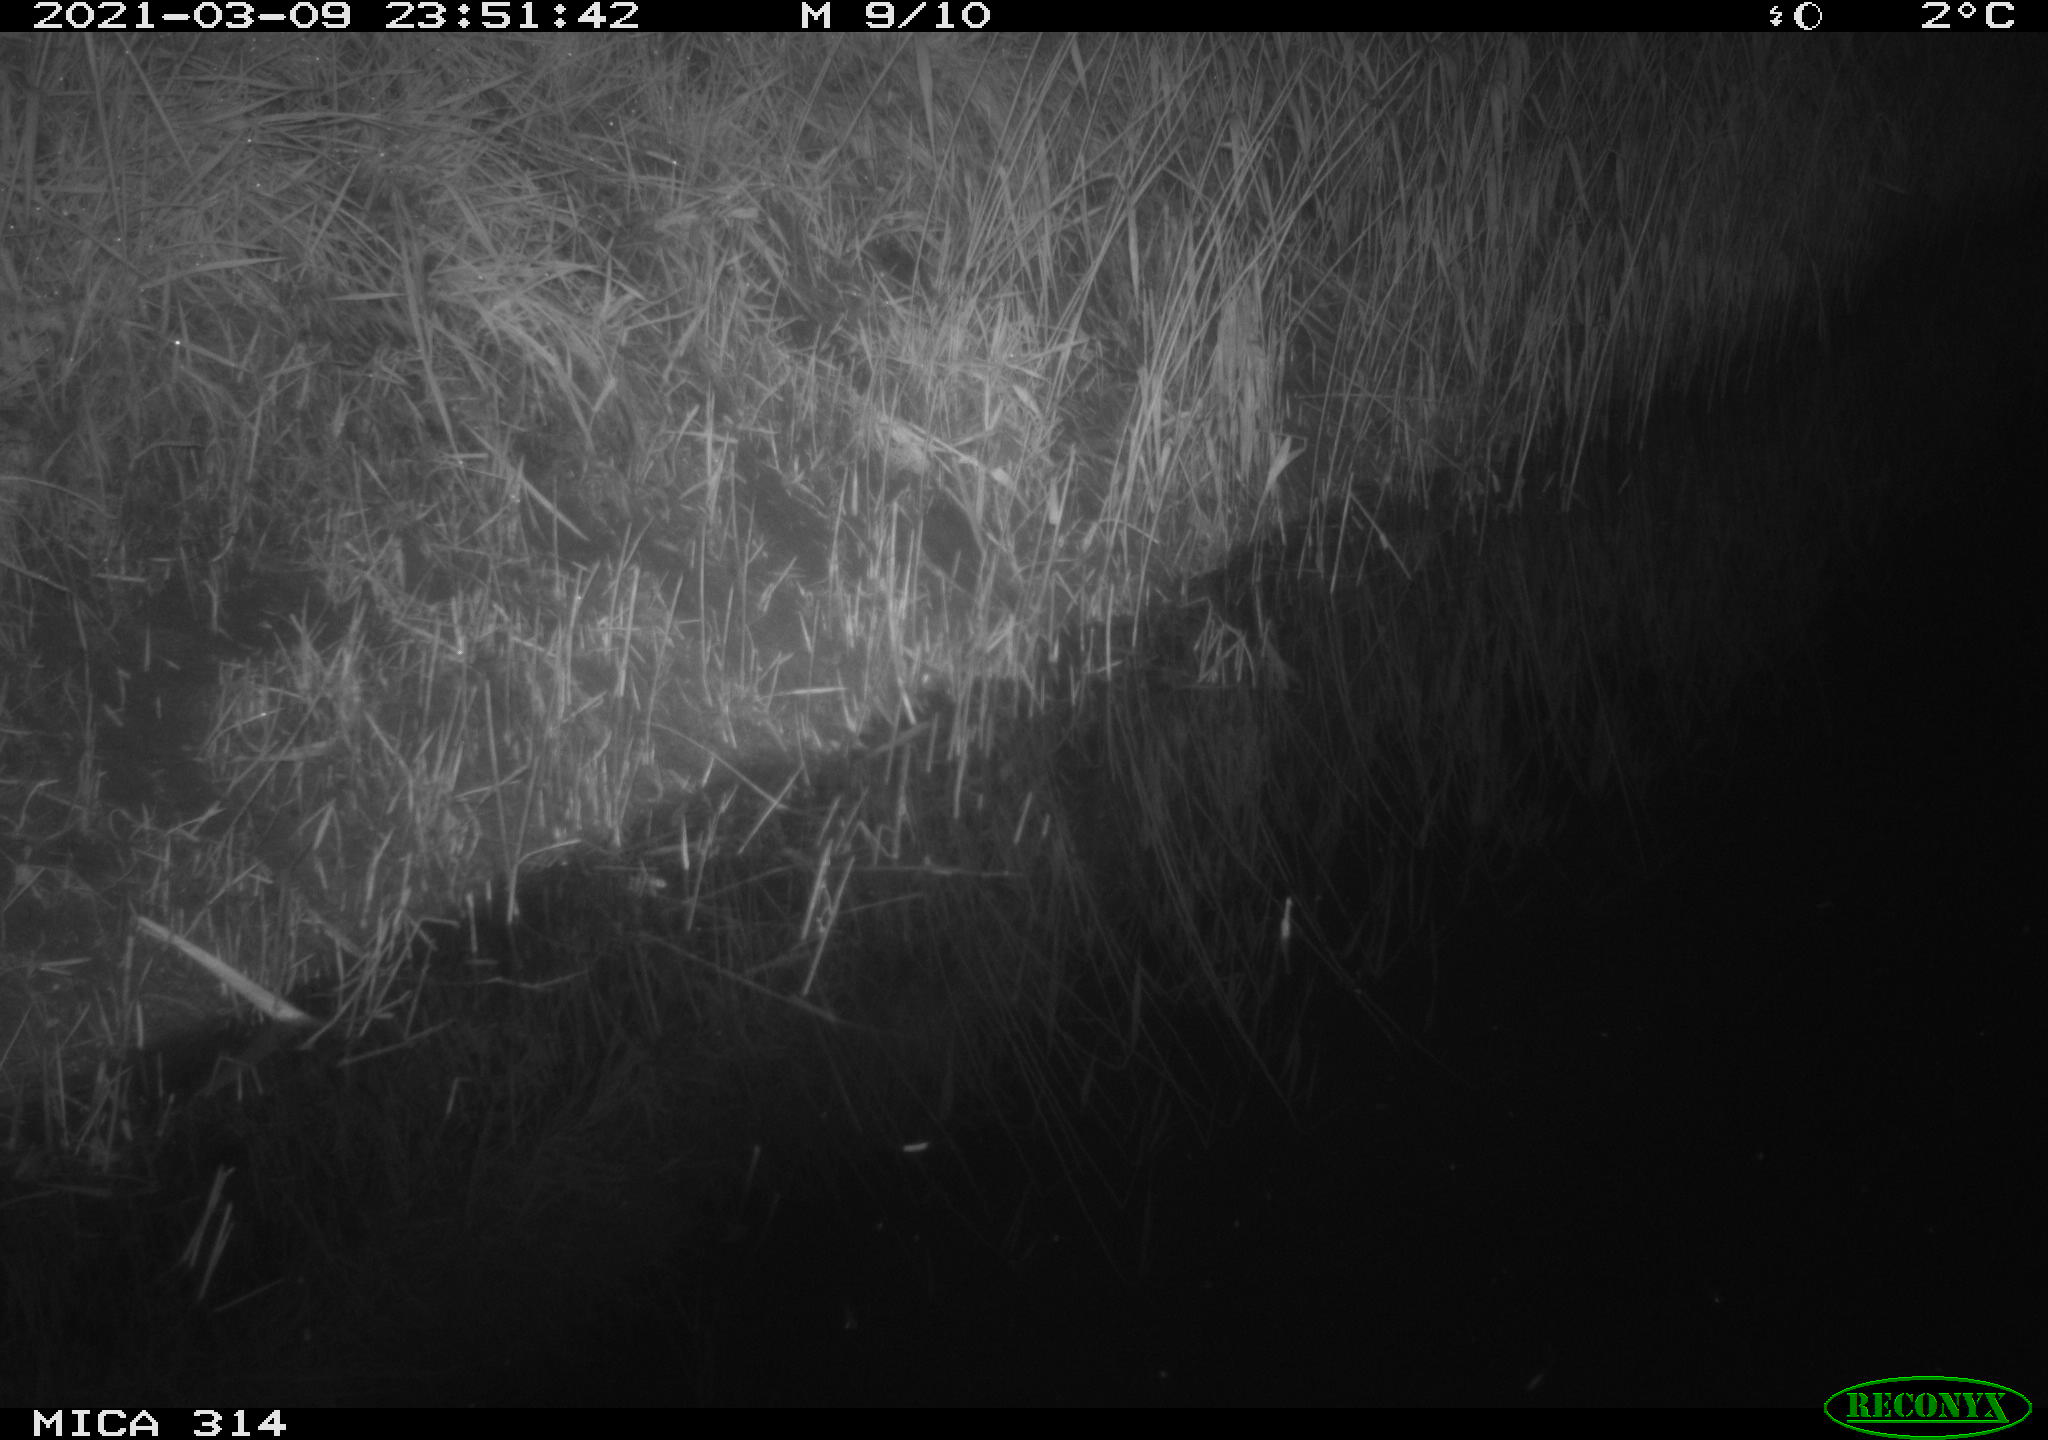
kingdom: Animalia
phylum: Chordata
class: Mammalia
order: Rodentia
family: Muridae
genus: Rattus
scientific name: Rattus norvegicus
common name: Brown rat
